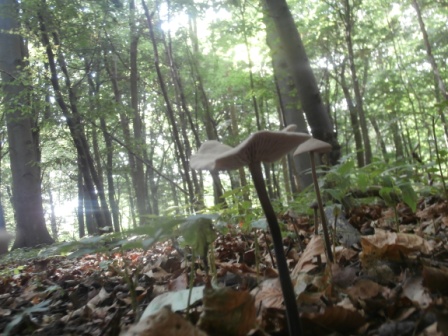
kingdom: Fungi
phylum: Basidiomycota
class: Agaricomycetes
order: Agaricales
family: Omphalotaceae
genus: Mycetinis
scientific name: Mycetinis alliaceus
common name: stor løghat
